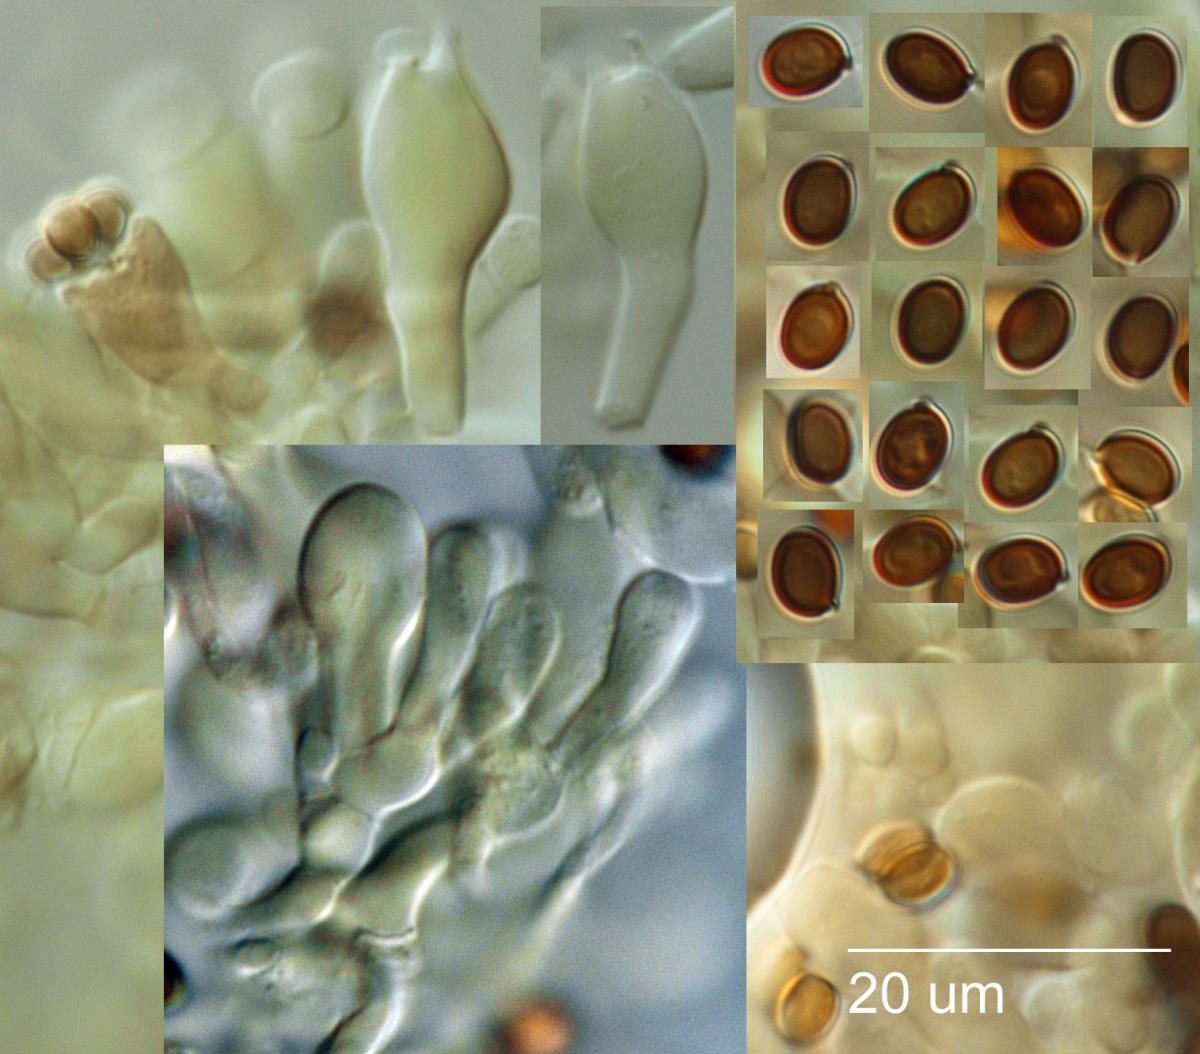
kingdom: Fungi
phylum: Basidiomycota
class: Agaricomycetes
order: Agaricales
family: Agaricaceae
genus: Agaricus
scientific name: Agaricus
